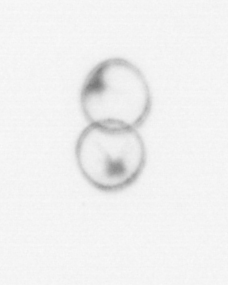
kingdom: Chromista
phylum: Myzozoa
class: Dinophyceae
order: Noctilucales
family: Noctilucaceae
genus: Noctiluca
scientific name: Noctiluca scintillans
